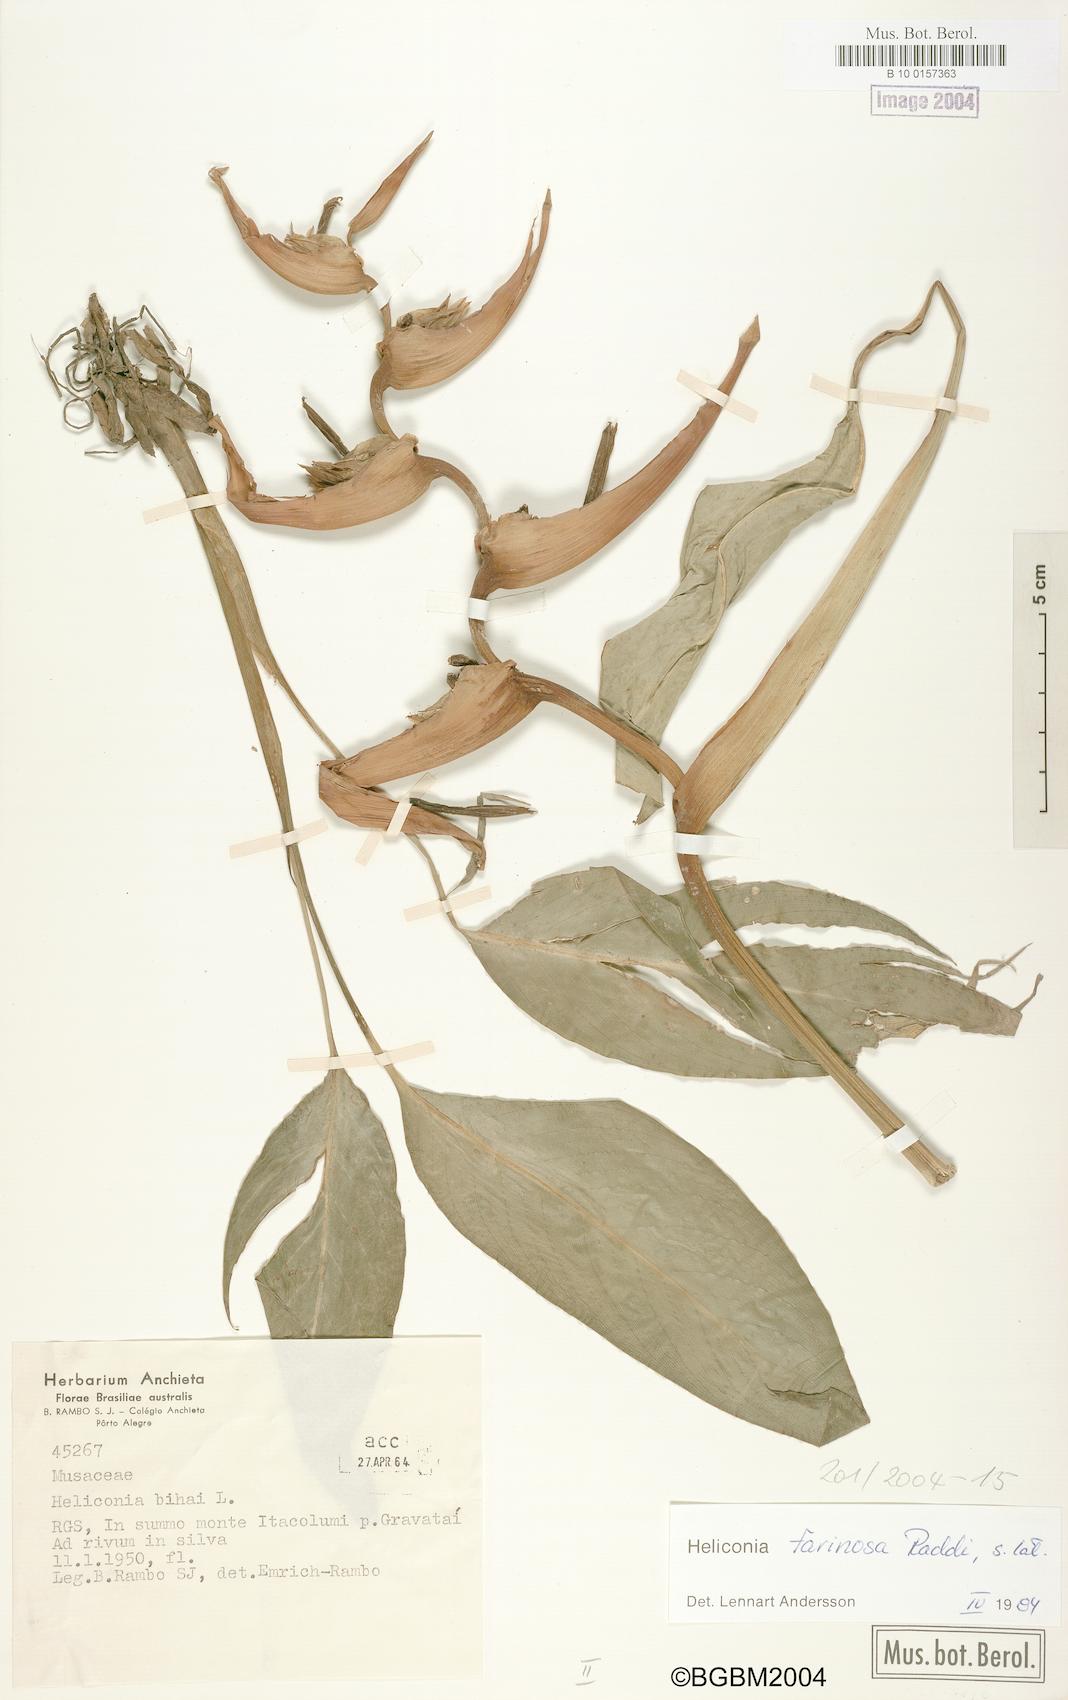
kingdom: Plantae
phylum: Tracheophyta
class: Liliopsida
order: Zingiberales
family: Heliconiaceae
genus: Heliconia
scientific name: Heliconia farinosa
